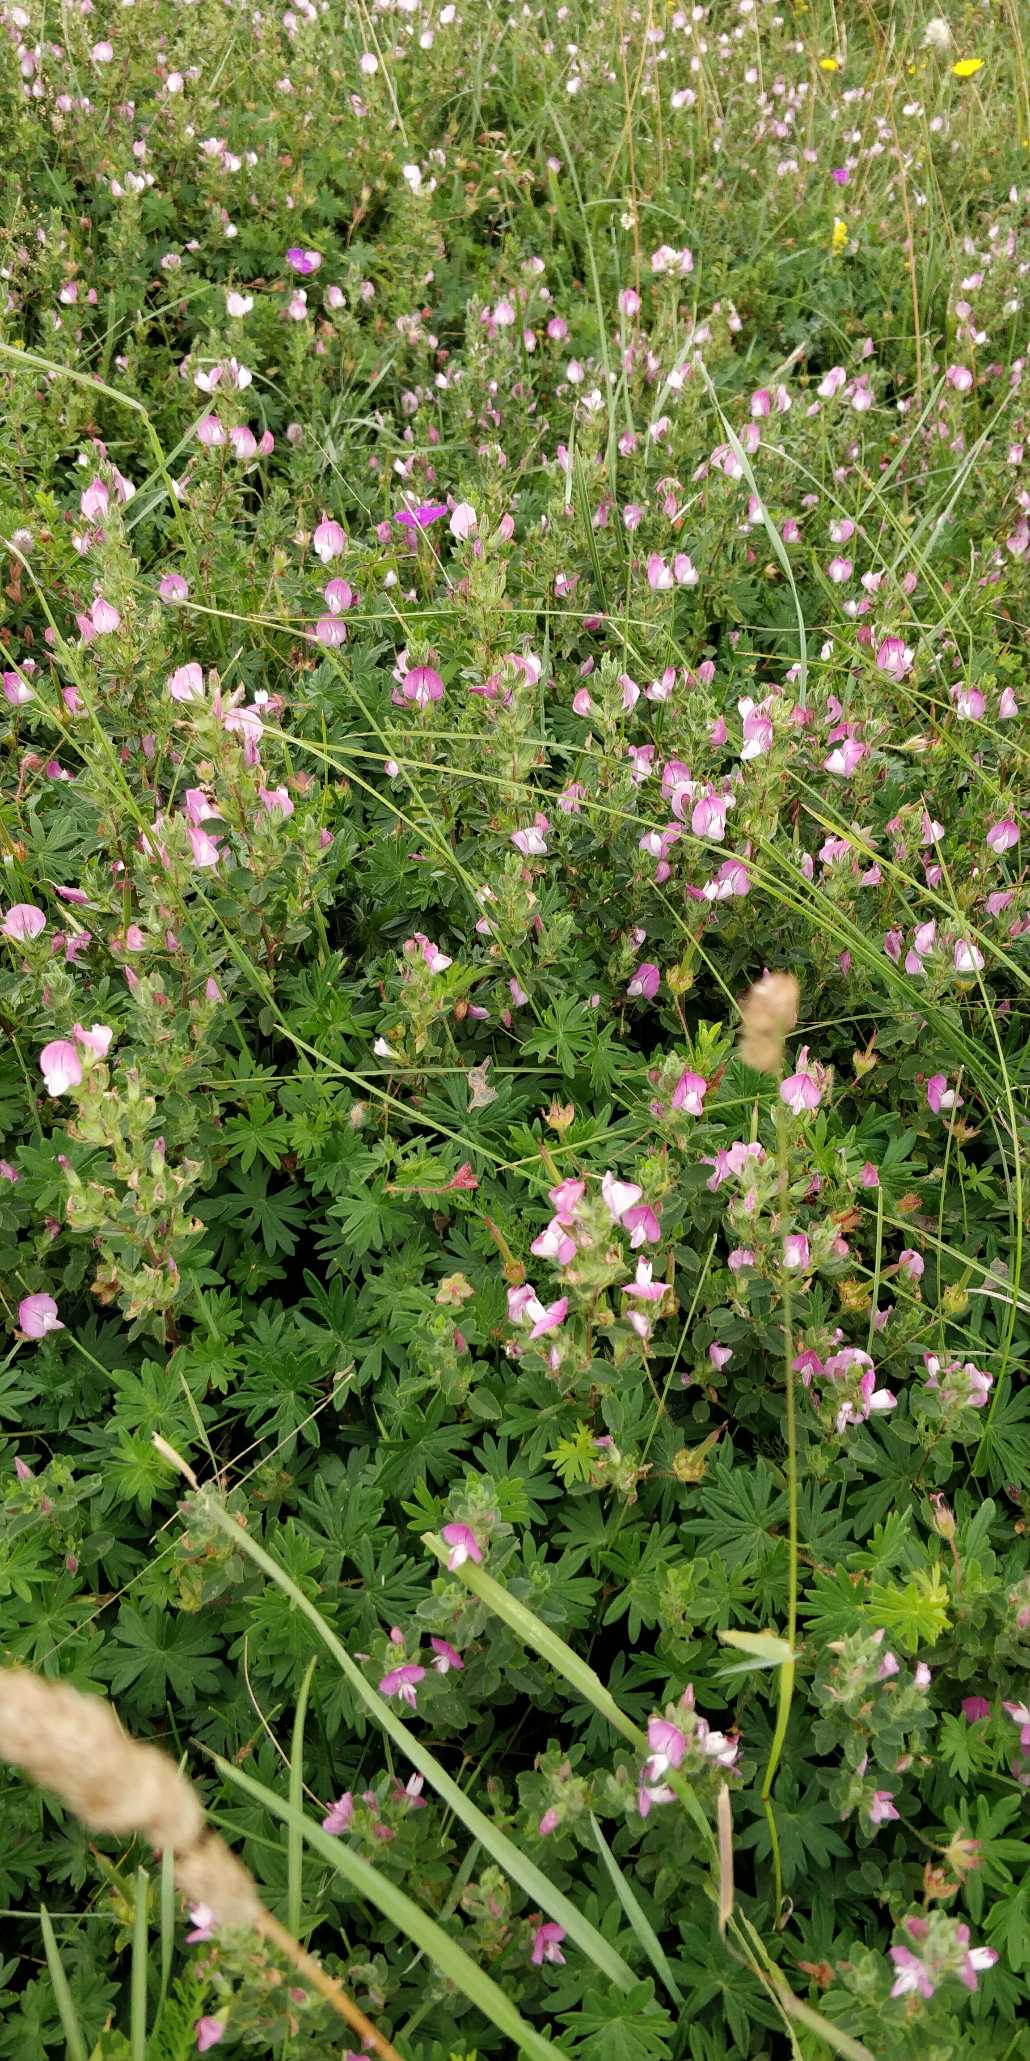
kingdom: Plantae
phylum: Tracheophyta
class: Magnoliopsida
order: Fabales
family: Fabaceae
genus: Ononis
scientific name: Ononis spinosa
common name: Mark-krageklo
